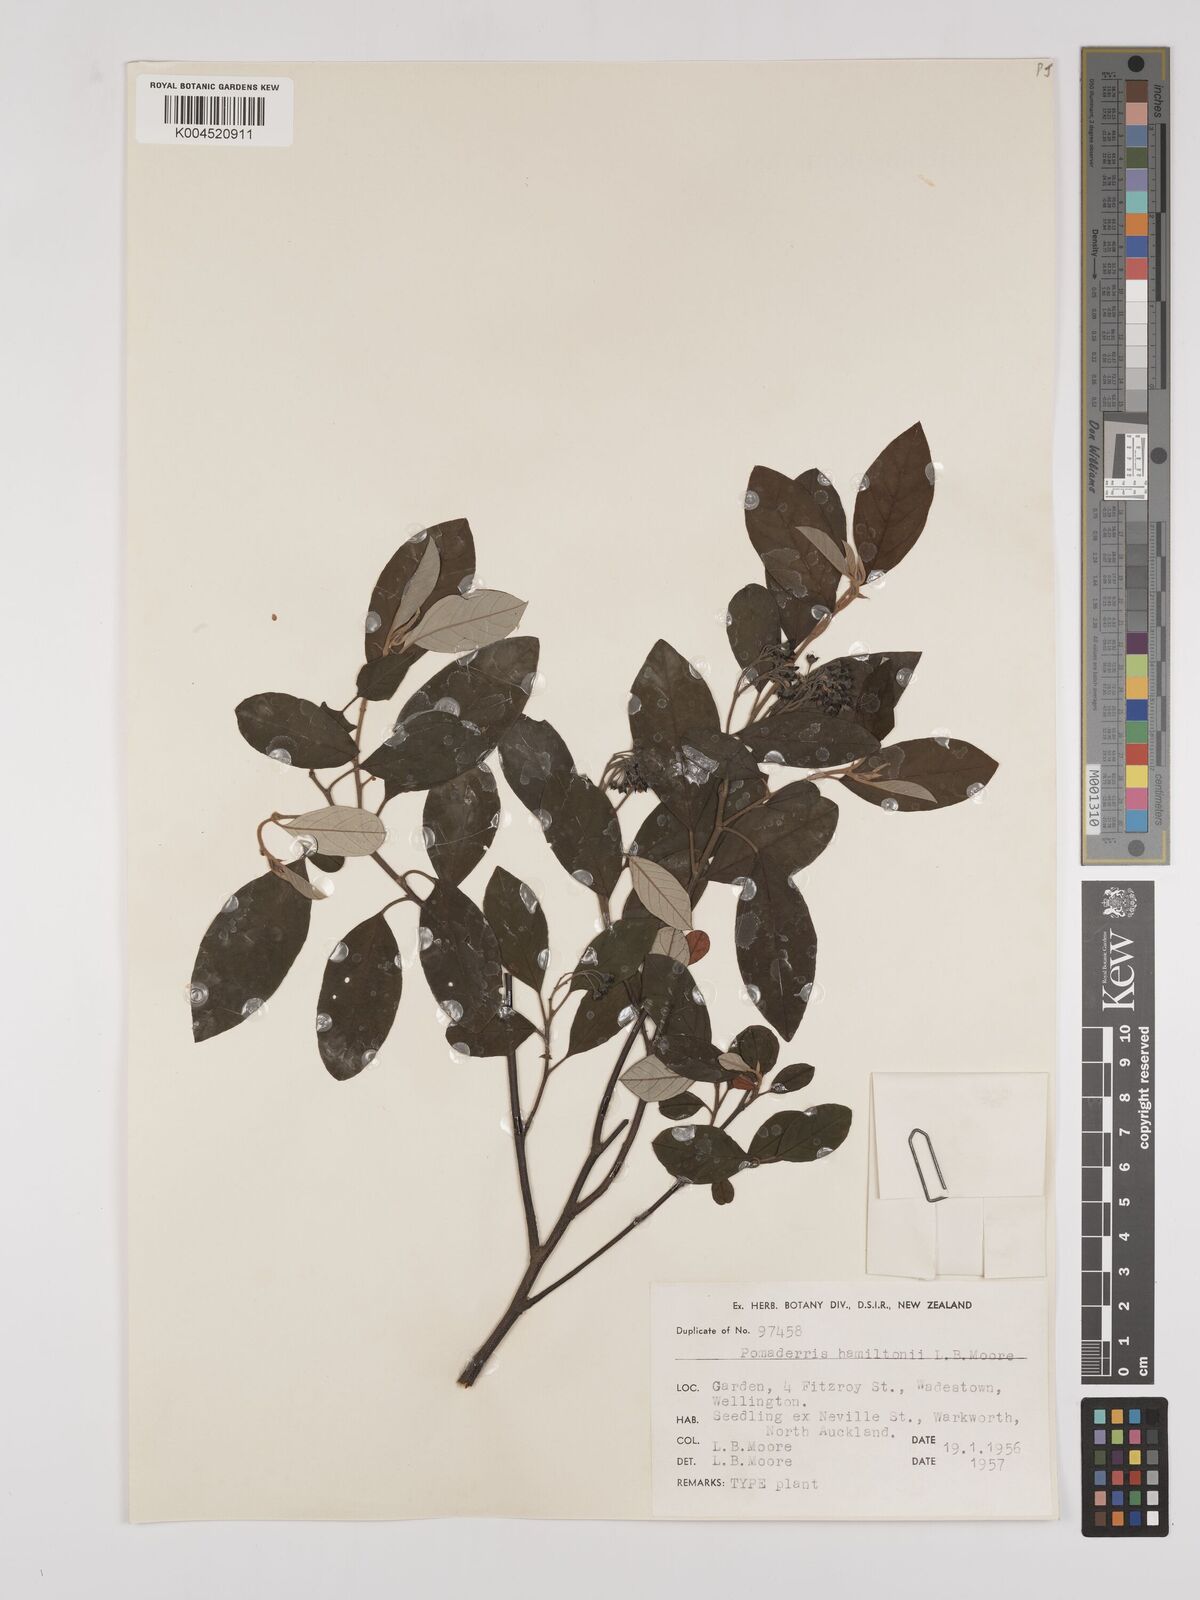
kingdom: Plantae
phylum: Tracheophyta
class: Magnoliopsida
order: Rosales
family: Rhamnaceae
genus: Pomaderris
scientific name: Pomaderris hamiltonii
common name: Pale-flowered kumarahou
